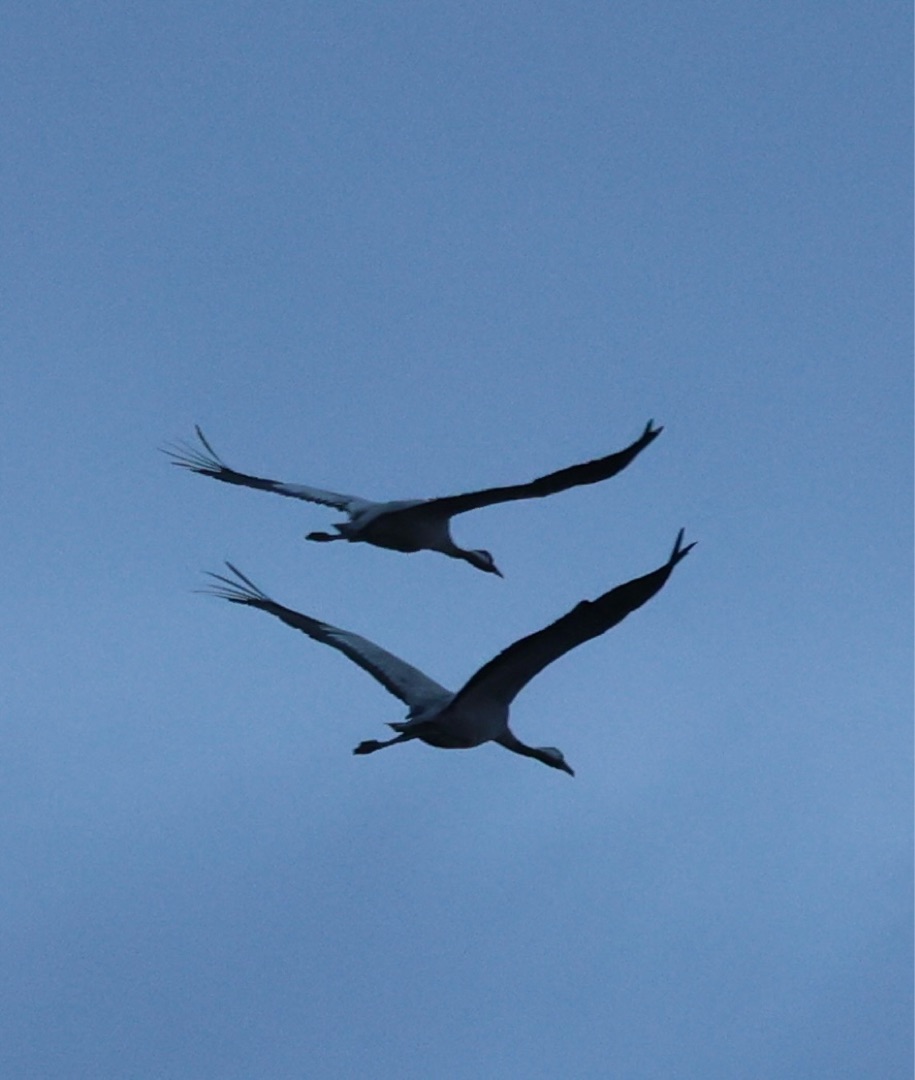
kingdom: Animalia
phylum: Chordata
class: Aves
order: Gruiformes
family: Gruidae
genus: Grus
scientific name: Grus grus
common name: Trane
